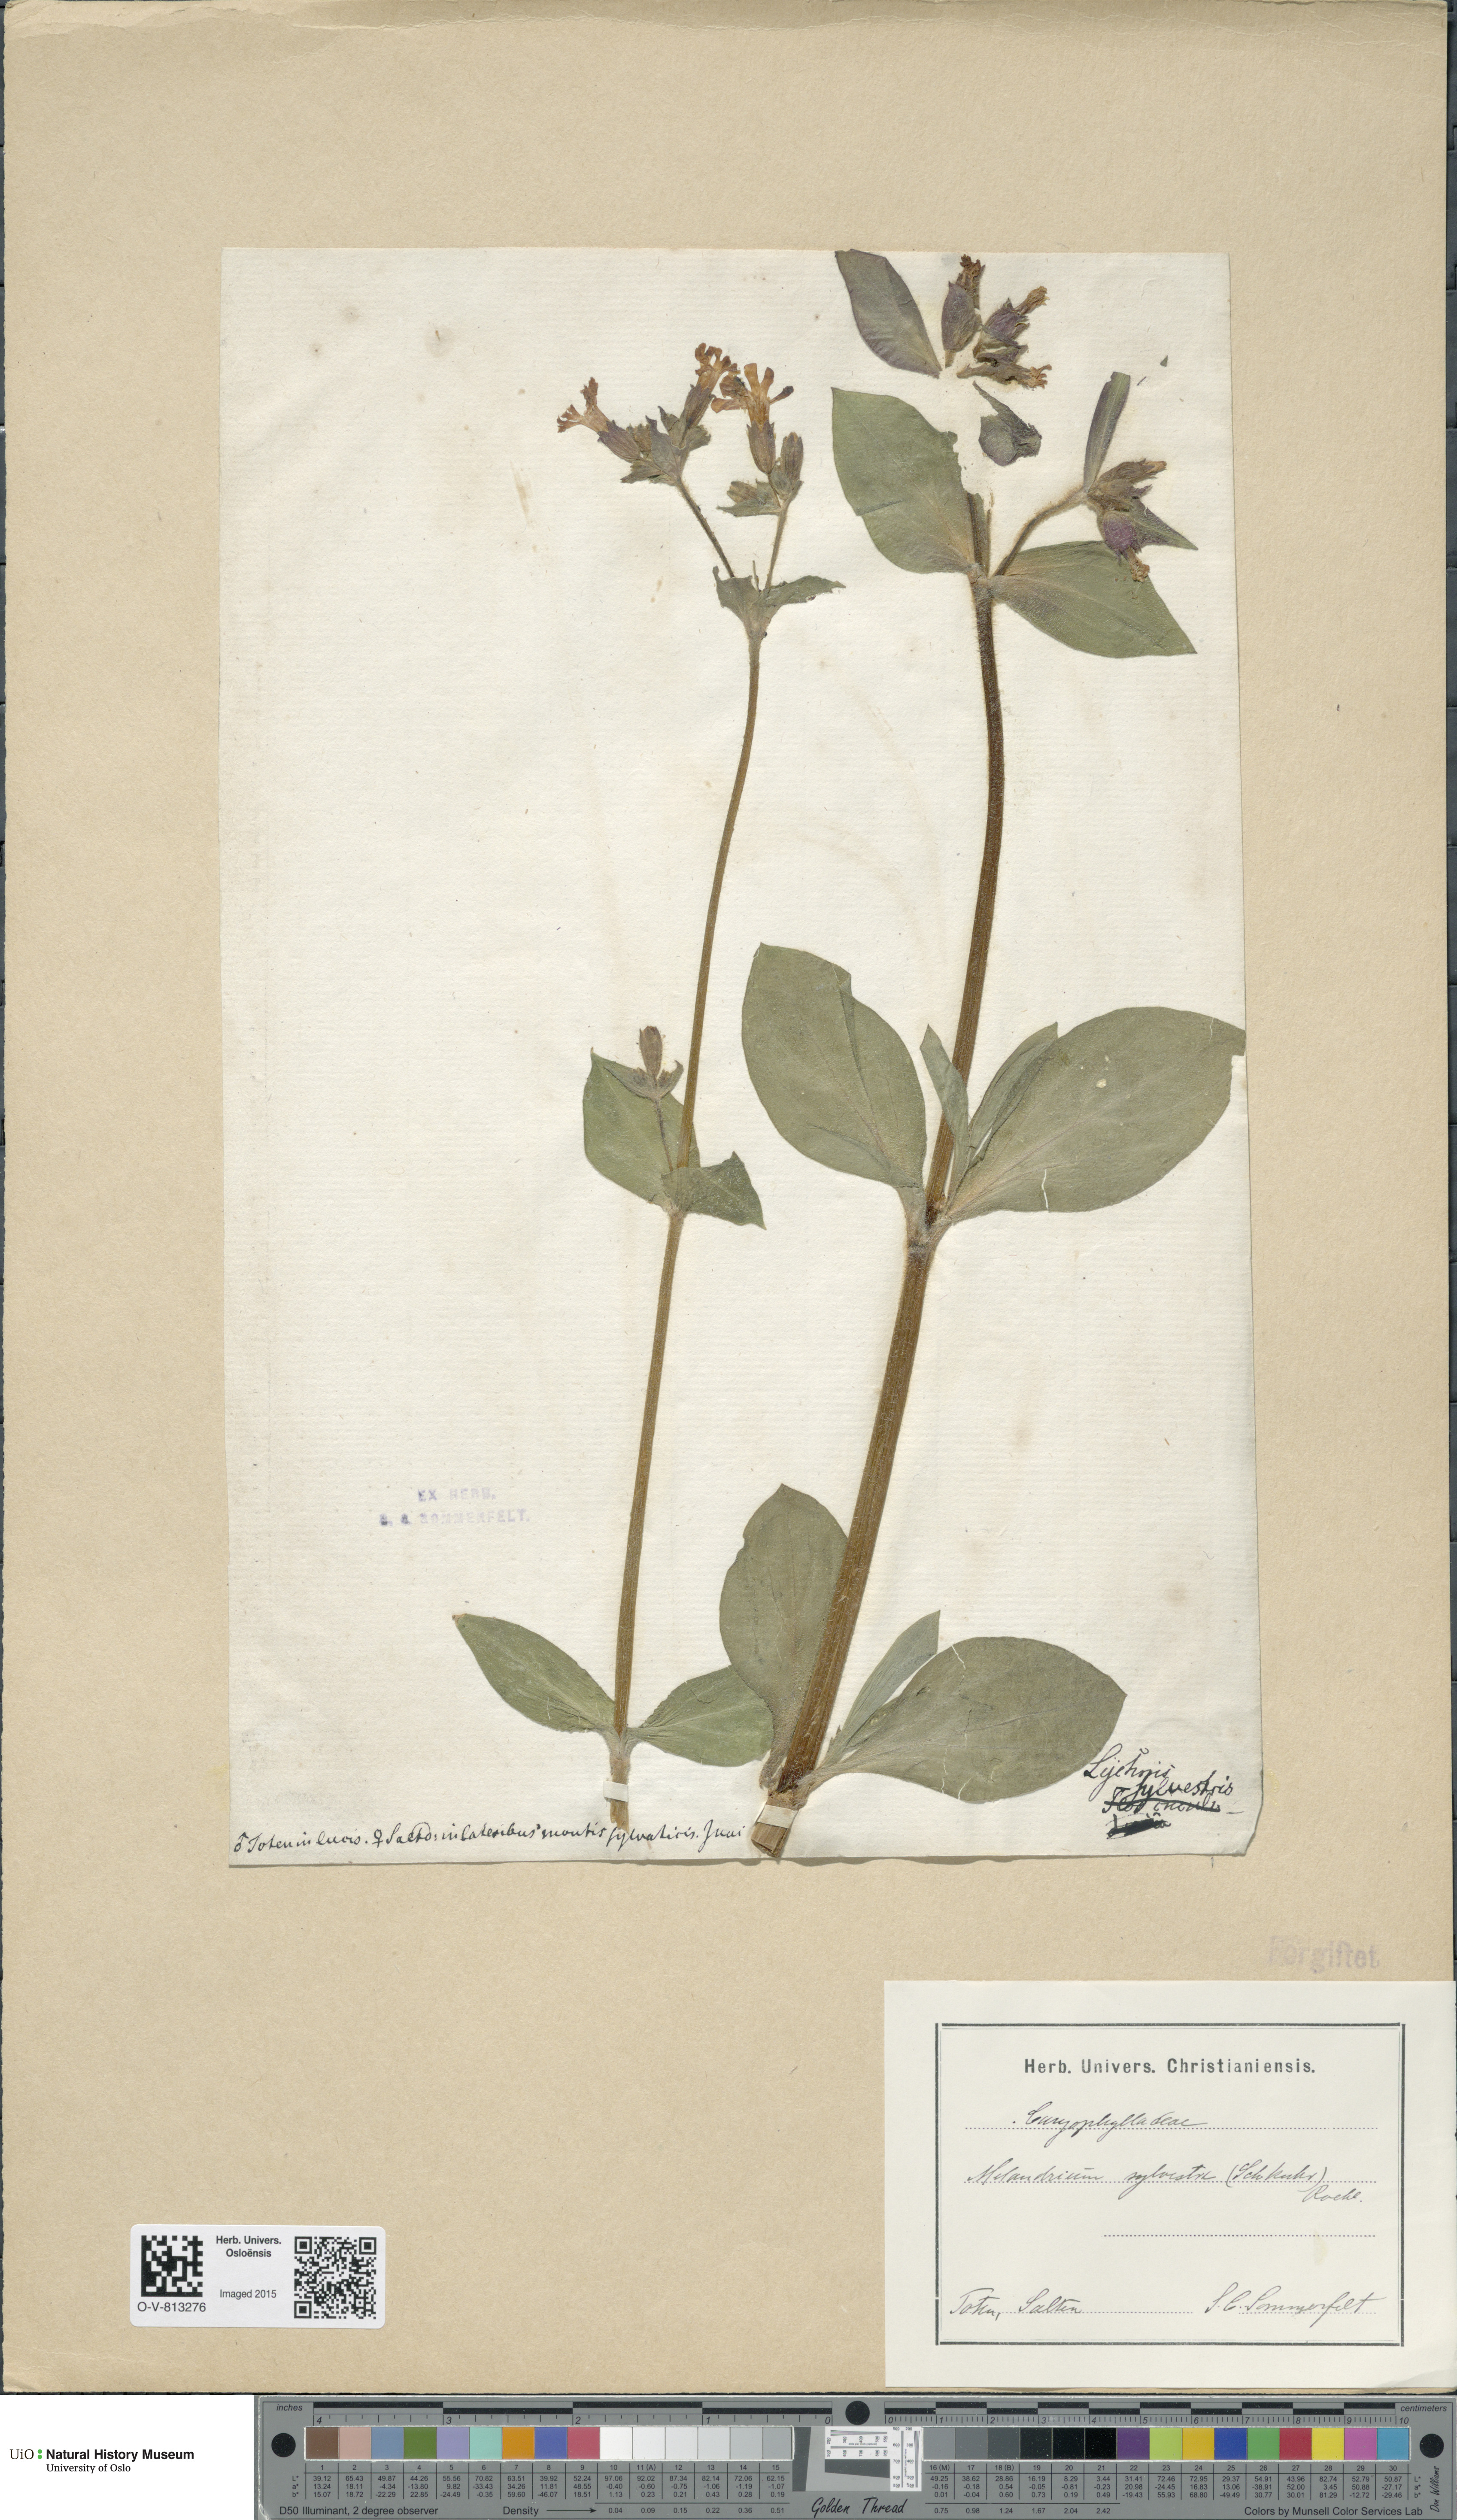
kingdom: Plantae
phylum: Tracheophyta
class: Magnoliopsida
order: Caryophyllales
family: Caryophyllaceae
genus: Silene
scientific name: Silene dioica
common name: Red campion
